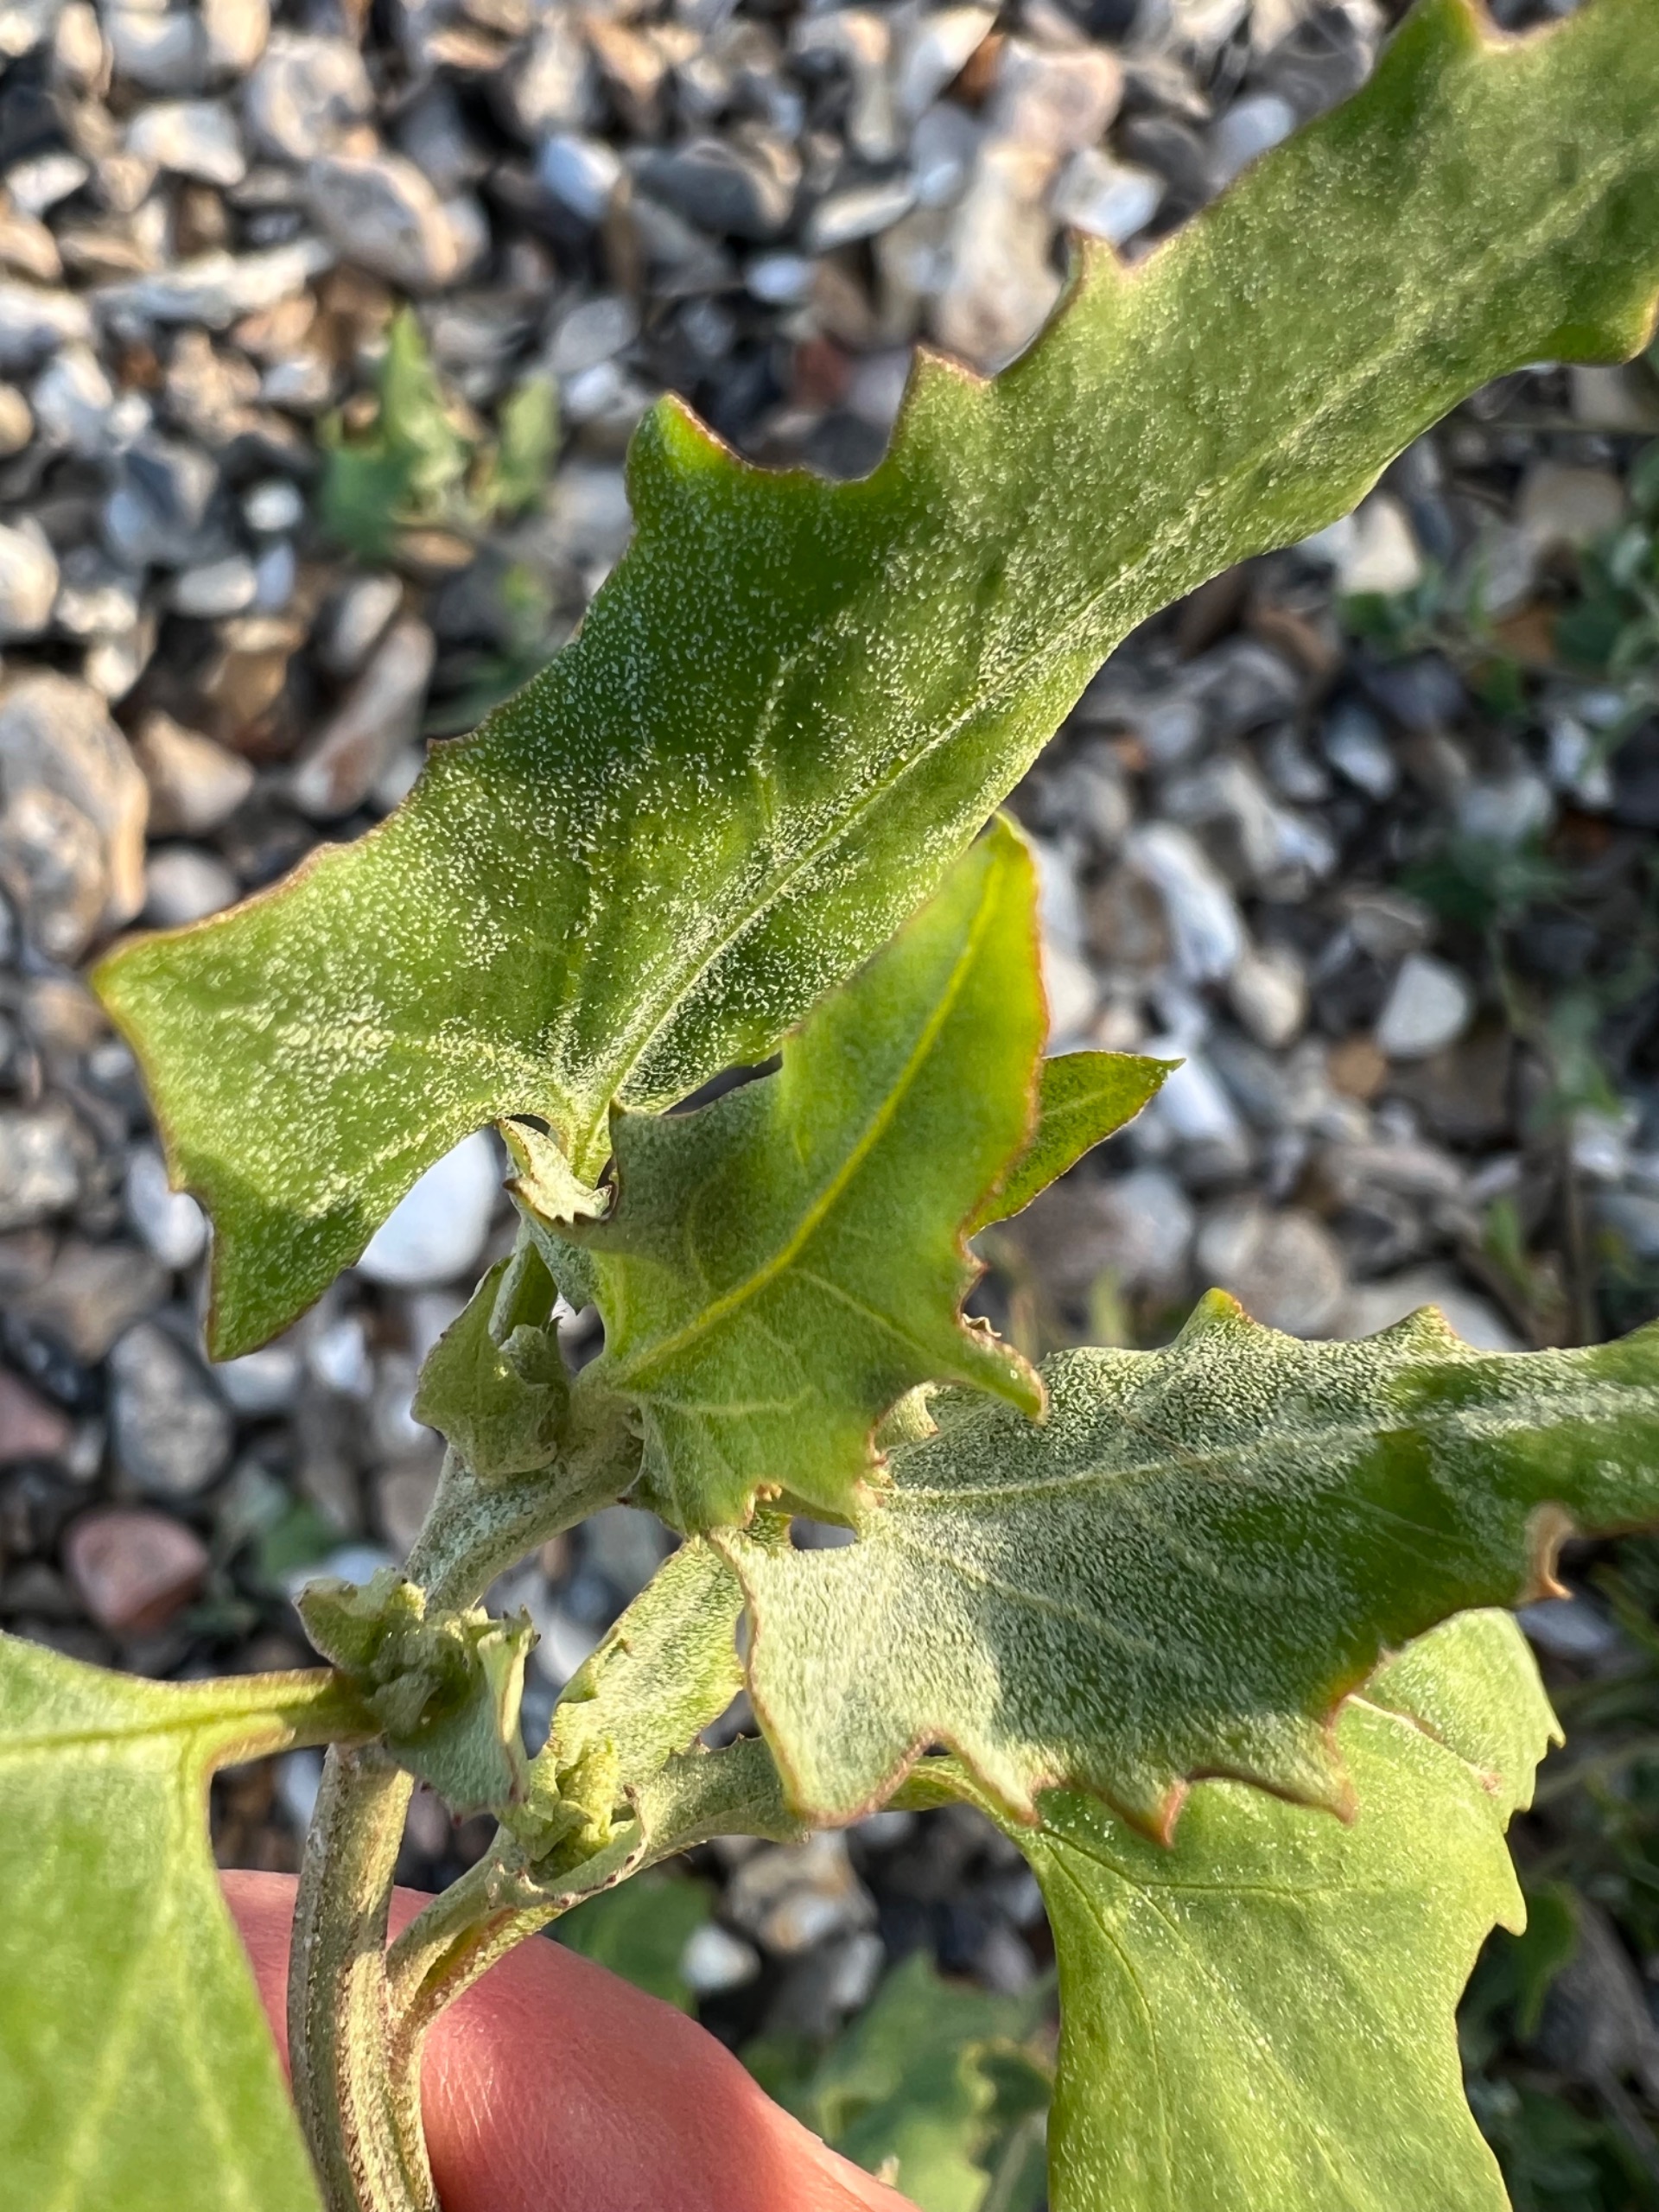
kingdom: Plantae
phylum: Tracheophyta
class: Magnoliopsida
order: Caryophyllales
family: Amaranthaceae
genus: Atriplex
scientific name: Atriplex prostrata
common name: Spyd-mælde
